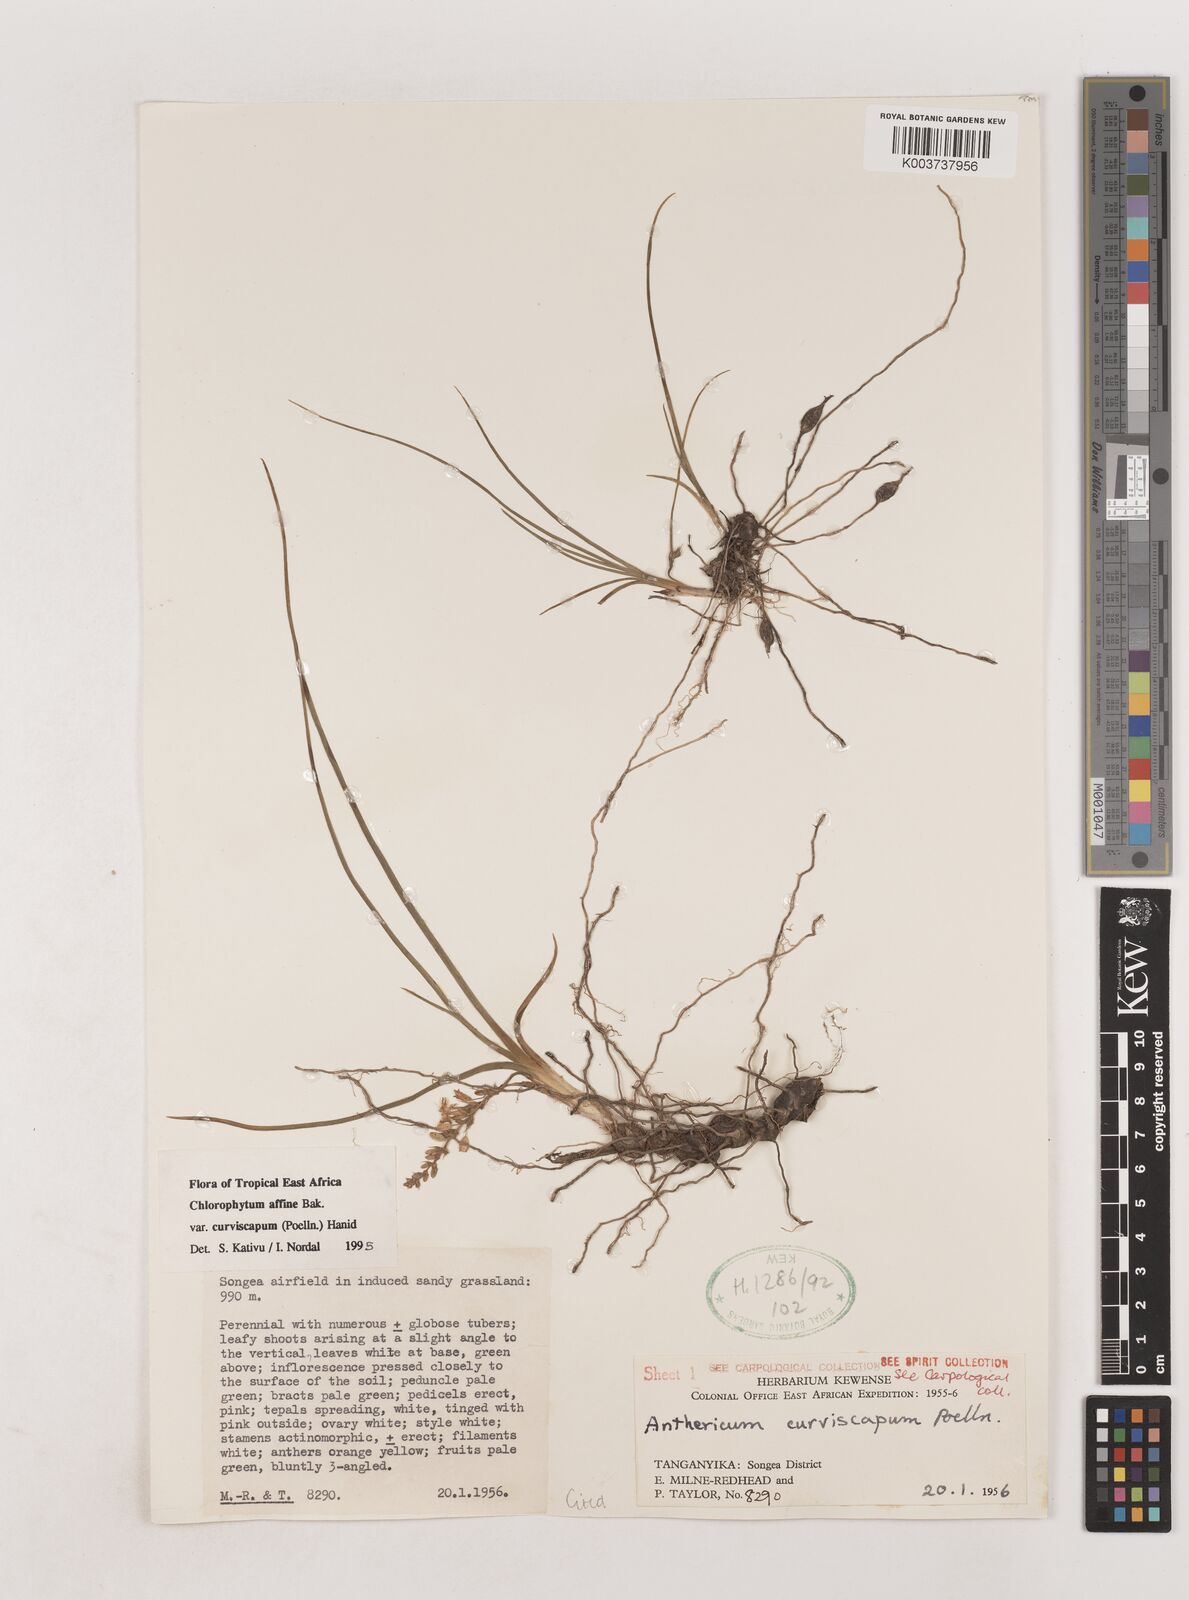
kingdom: Plantae
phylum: Tracheophyta
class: Liliopsida
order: Asparagales
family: Asparagaceae
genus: Chlorophytum
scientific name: Chlorophytum tordense
